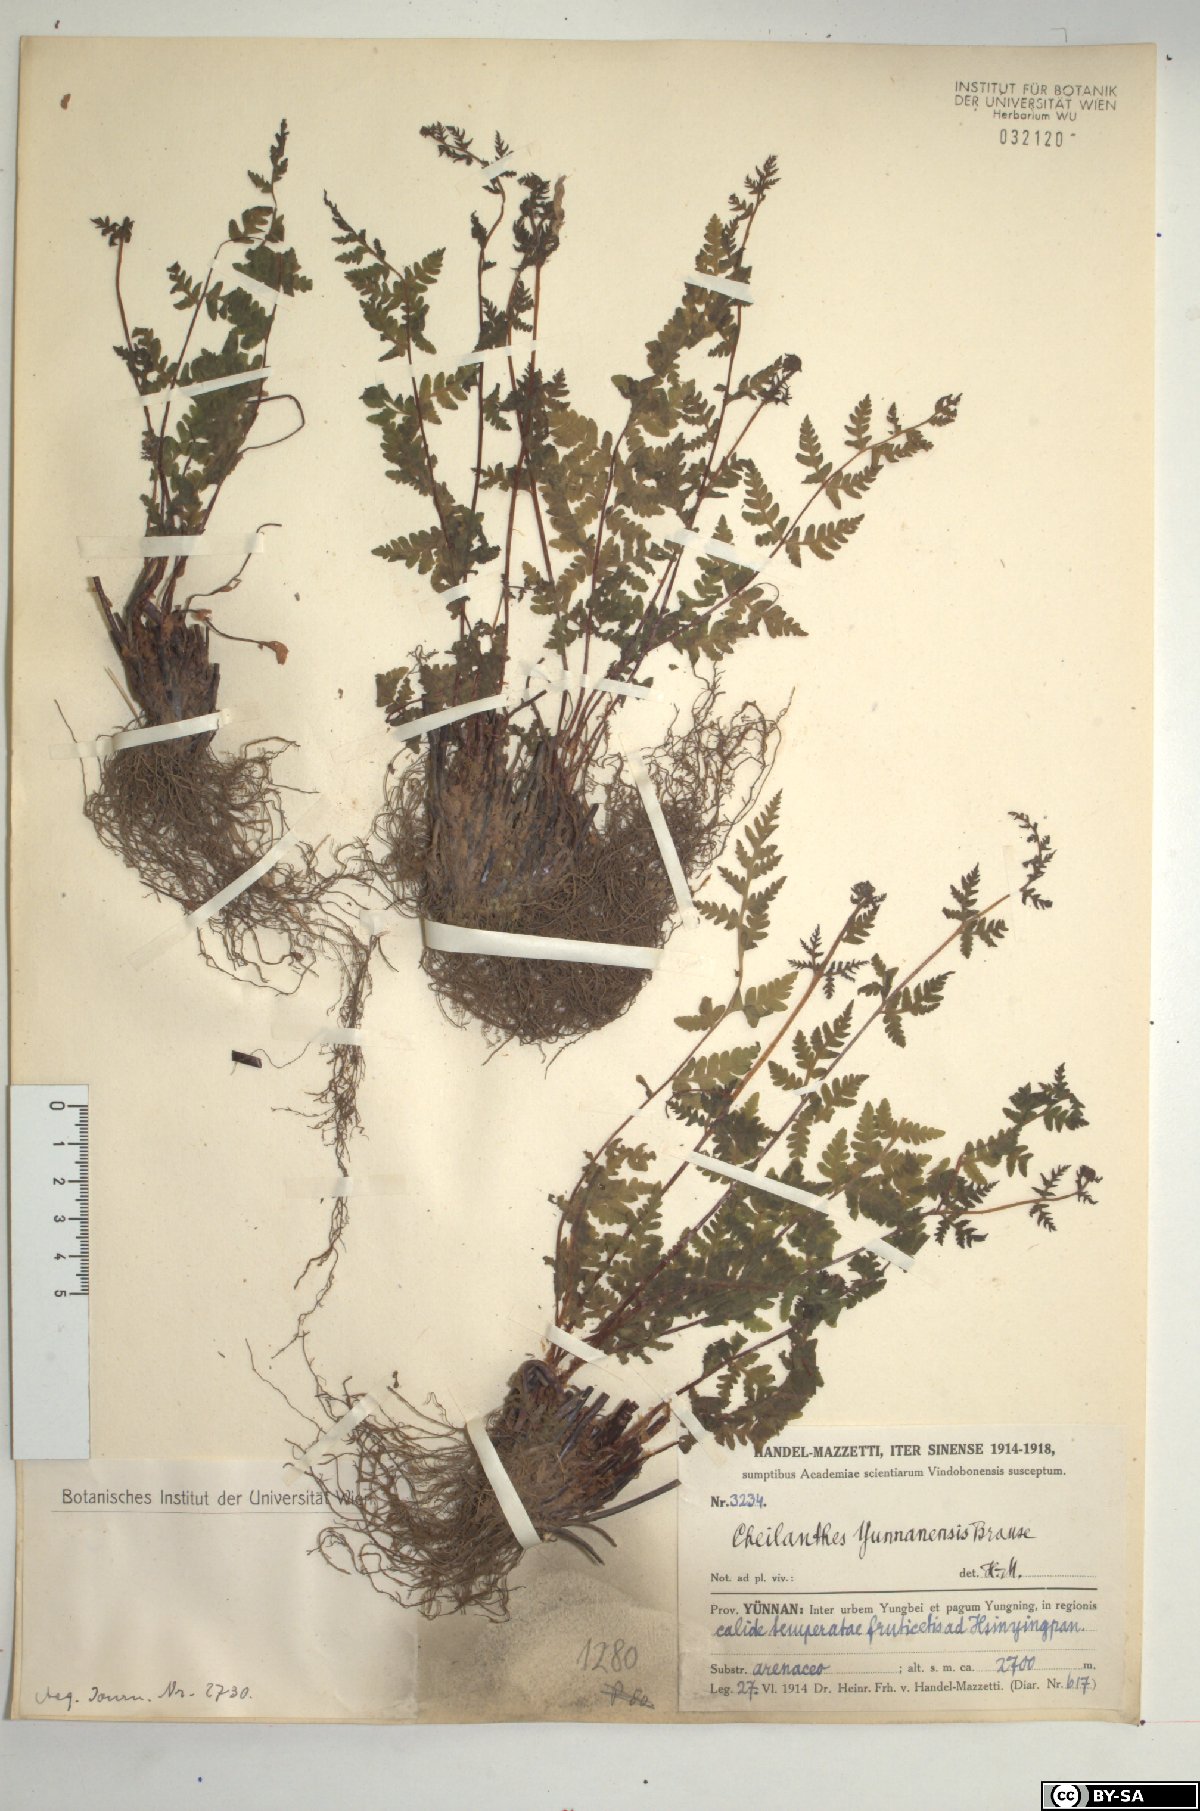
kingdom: Plantae
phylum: Tracheophyta
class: Polypodiopsida
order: Polypodiales
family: Pteridaceae
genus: Oeosporangium
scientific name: Oeosporangium subvillosum
